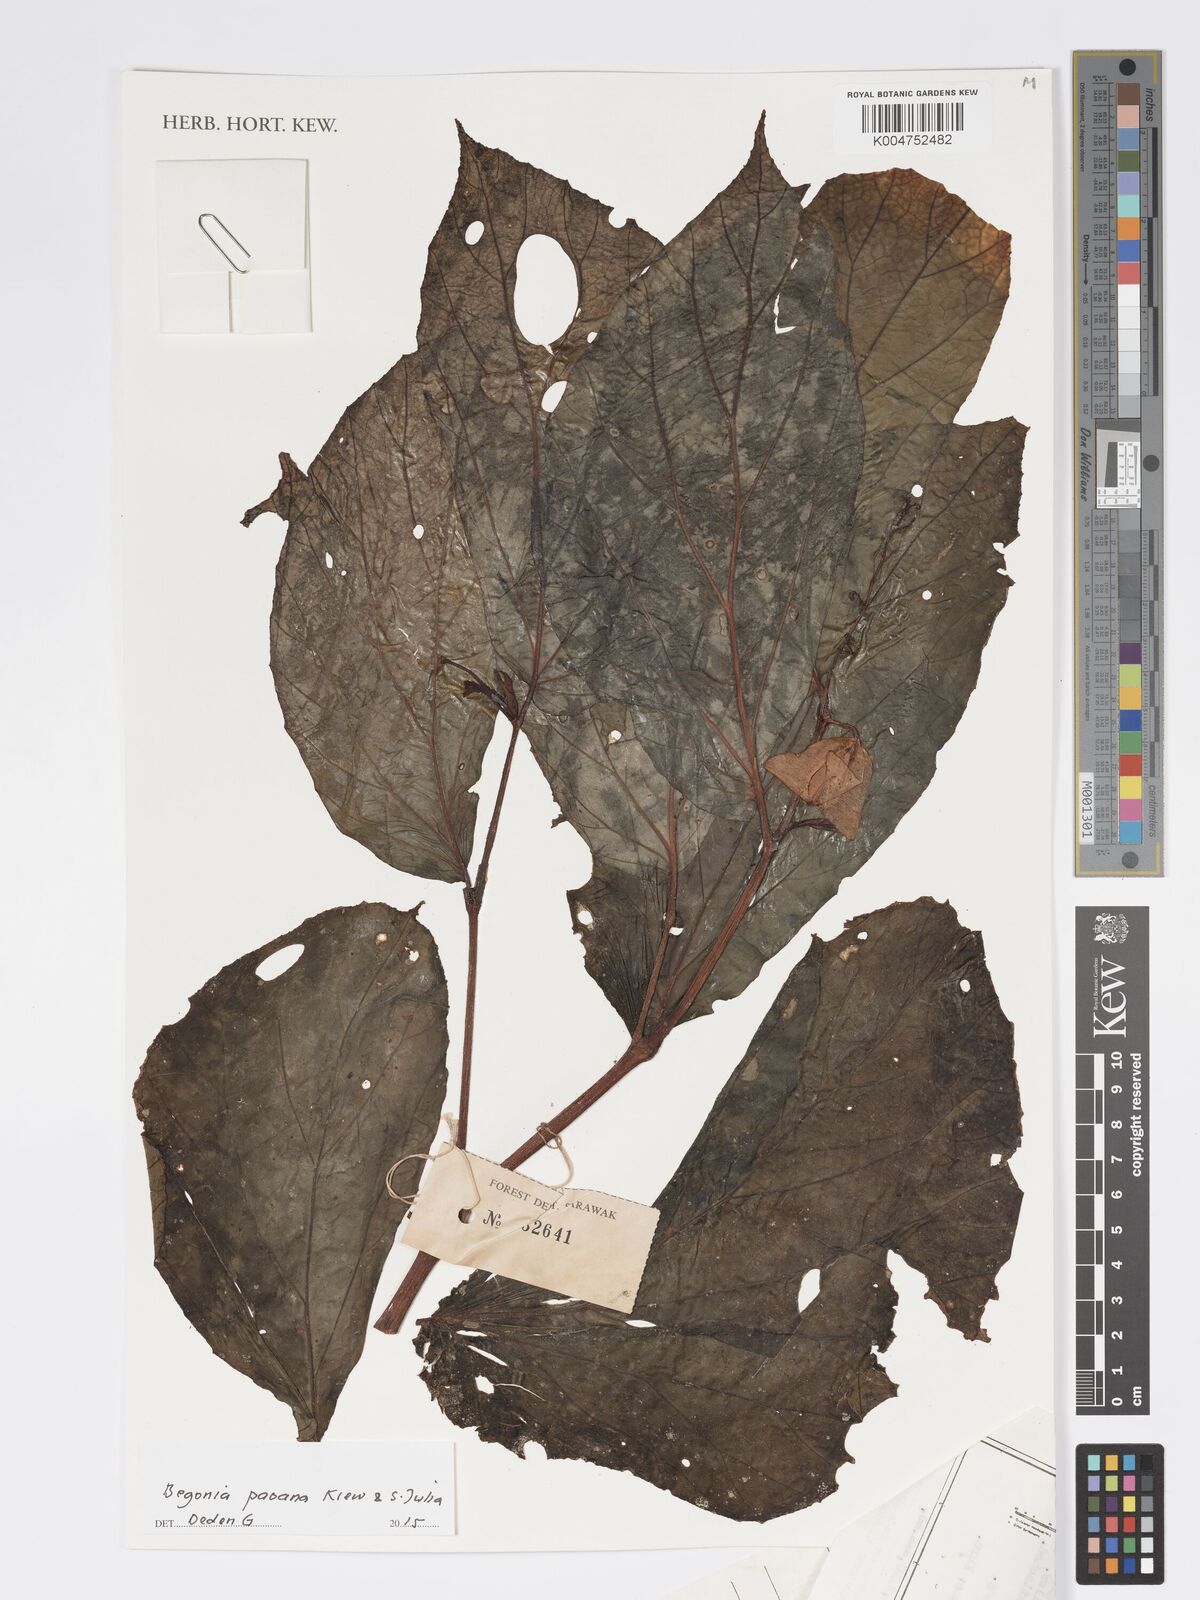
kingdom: Plantae
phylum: Tracheophyta
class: Magnoliopsida
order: Cucurbitales
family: Begoniaceae
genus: Begonia
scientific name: Begonia paoana
